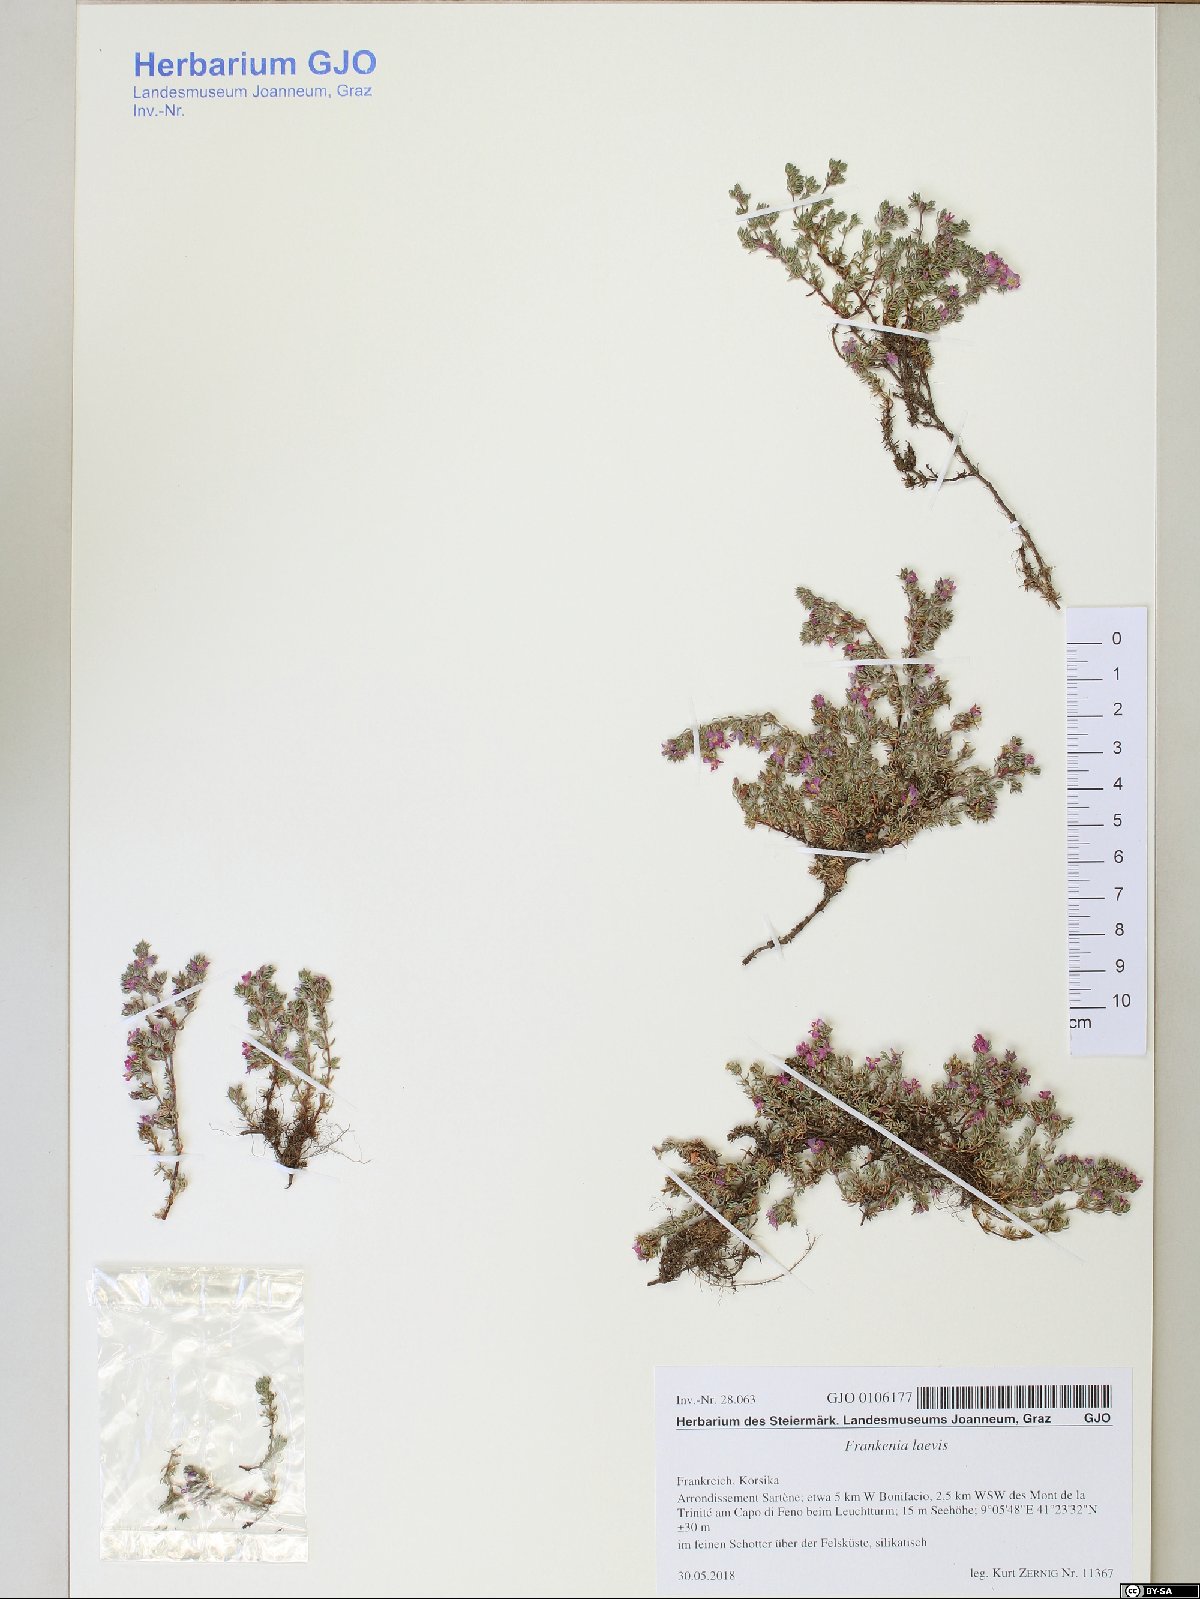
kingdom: Plantae
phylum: Tracheophyta
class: Magnoliopsida
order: Caryophyllales
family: Frankeniaceae
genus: Frankenia
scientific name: Frankenia laevis
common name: Sea-heath
